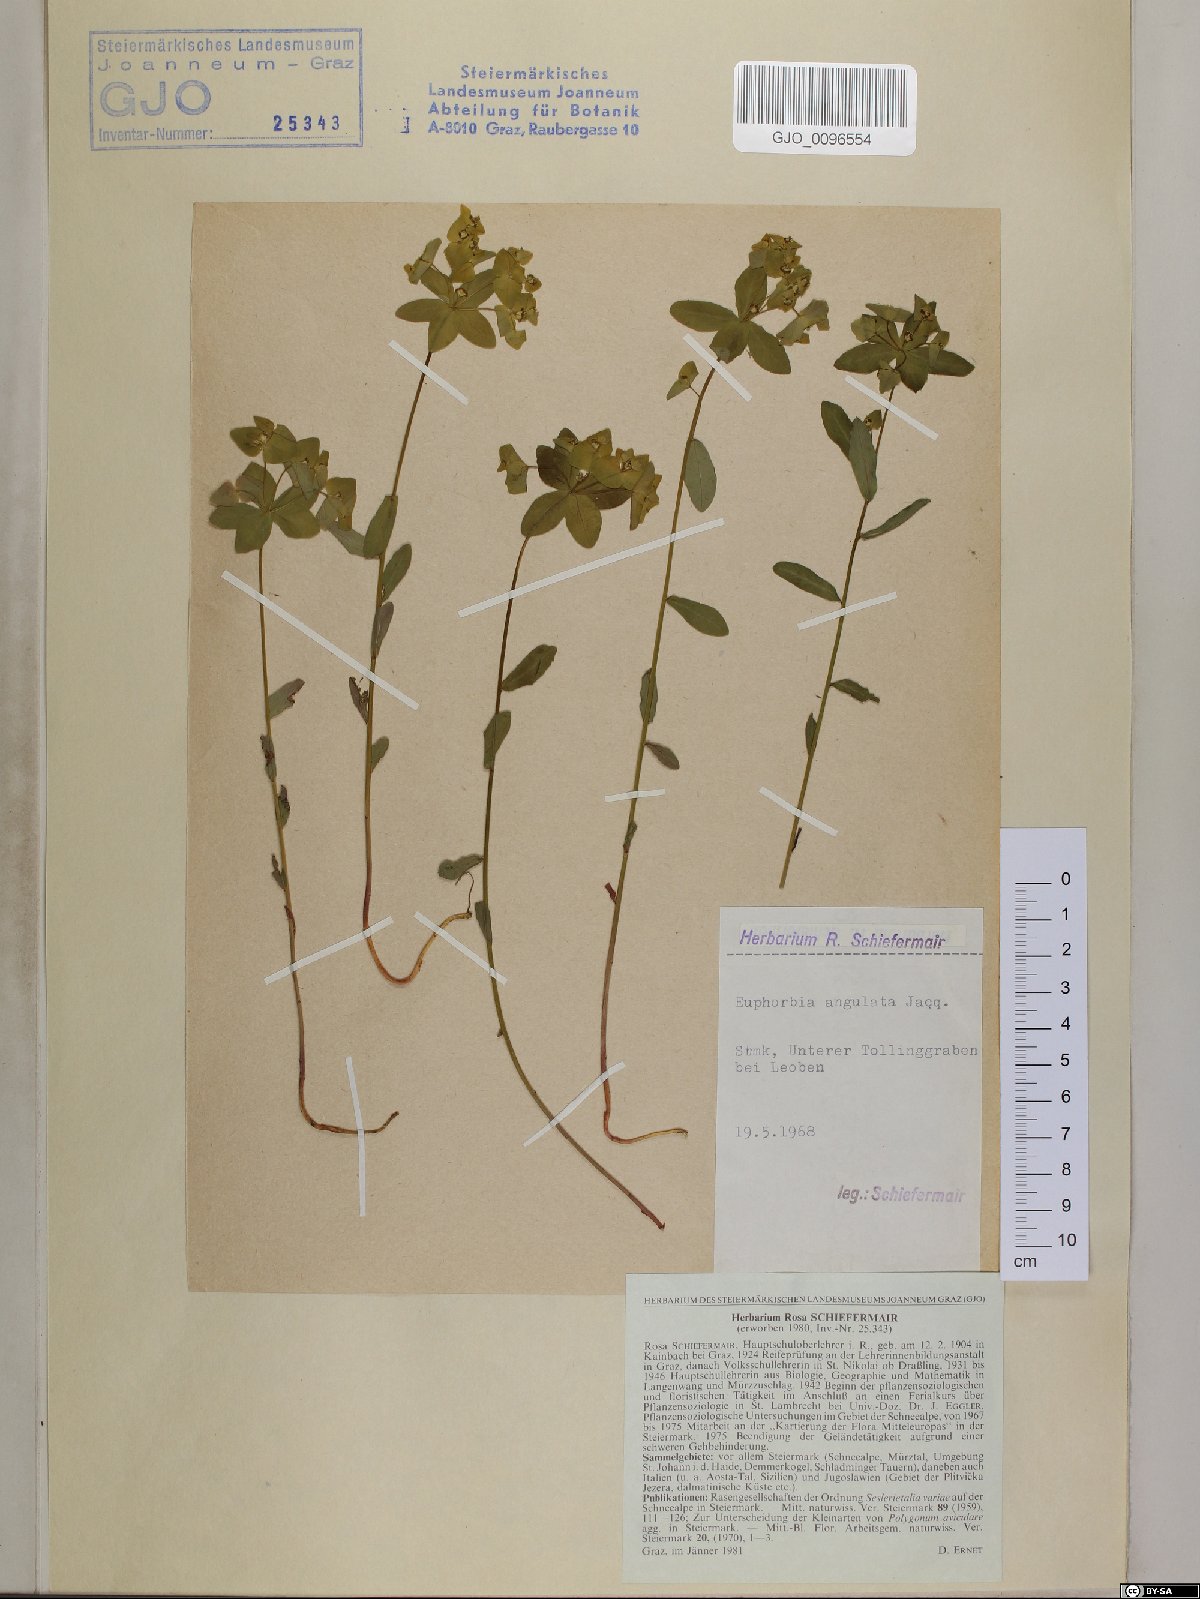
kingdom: Plantae
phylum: Tracheophyta
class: Magnoliopsida
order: Malpighiales
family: Euphorbiaceae
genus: Euphorbia
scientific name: Euphorbia angulata
